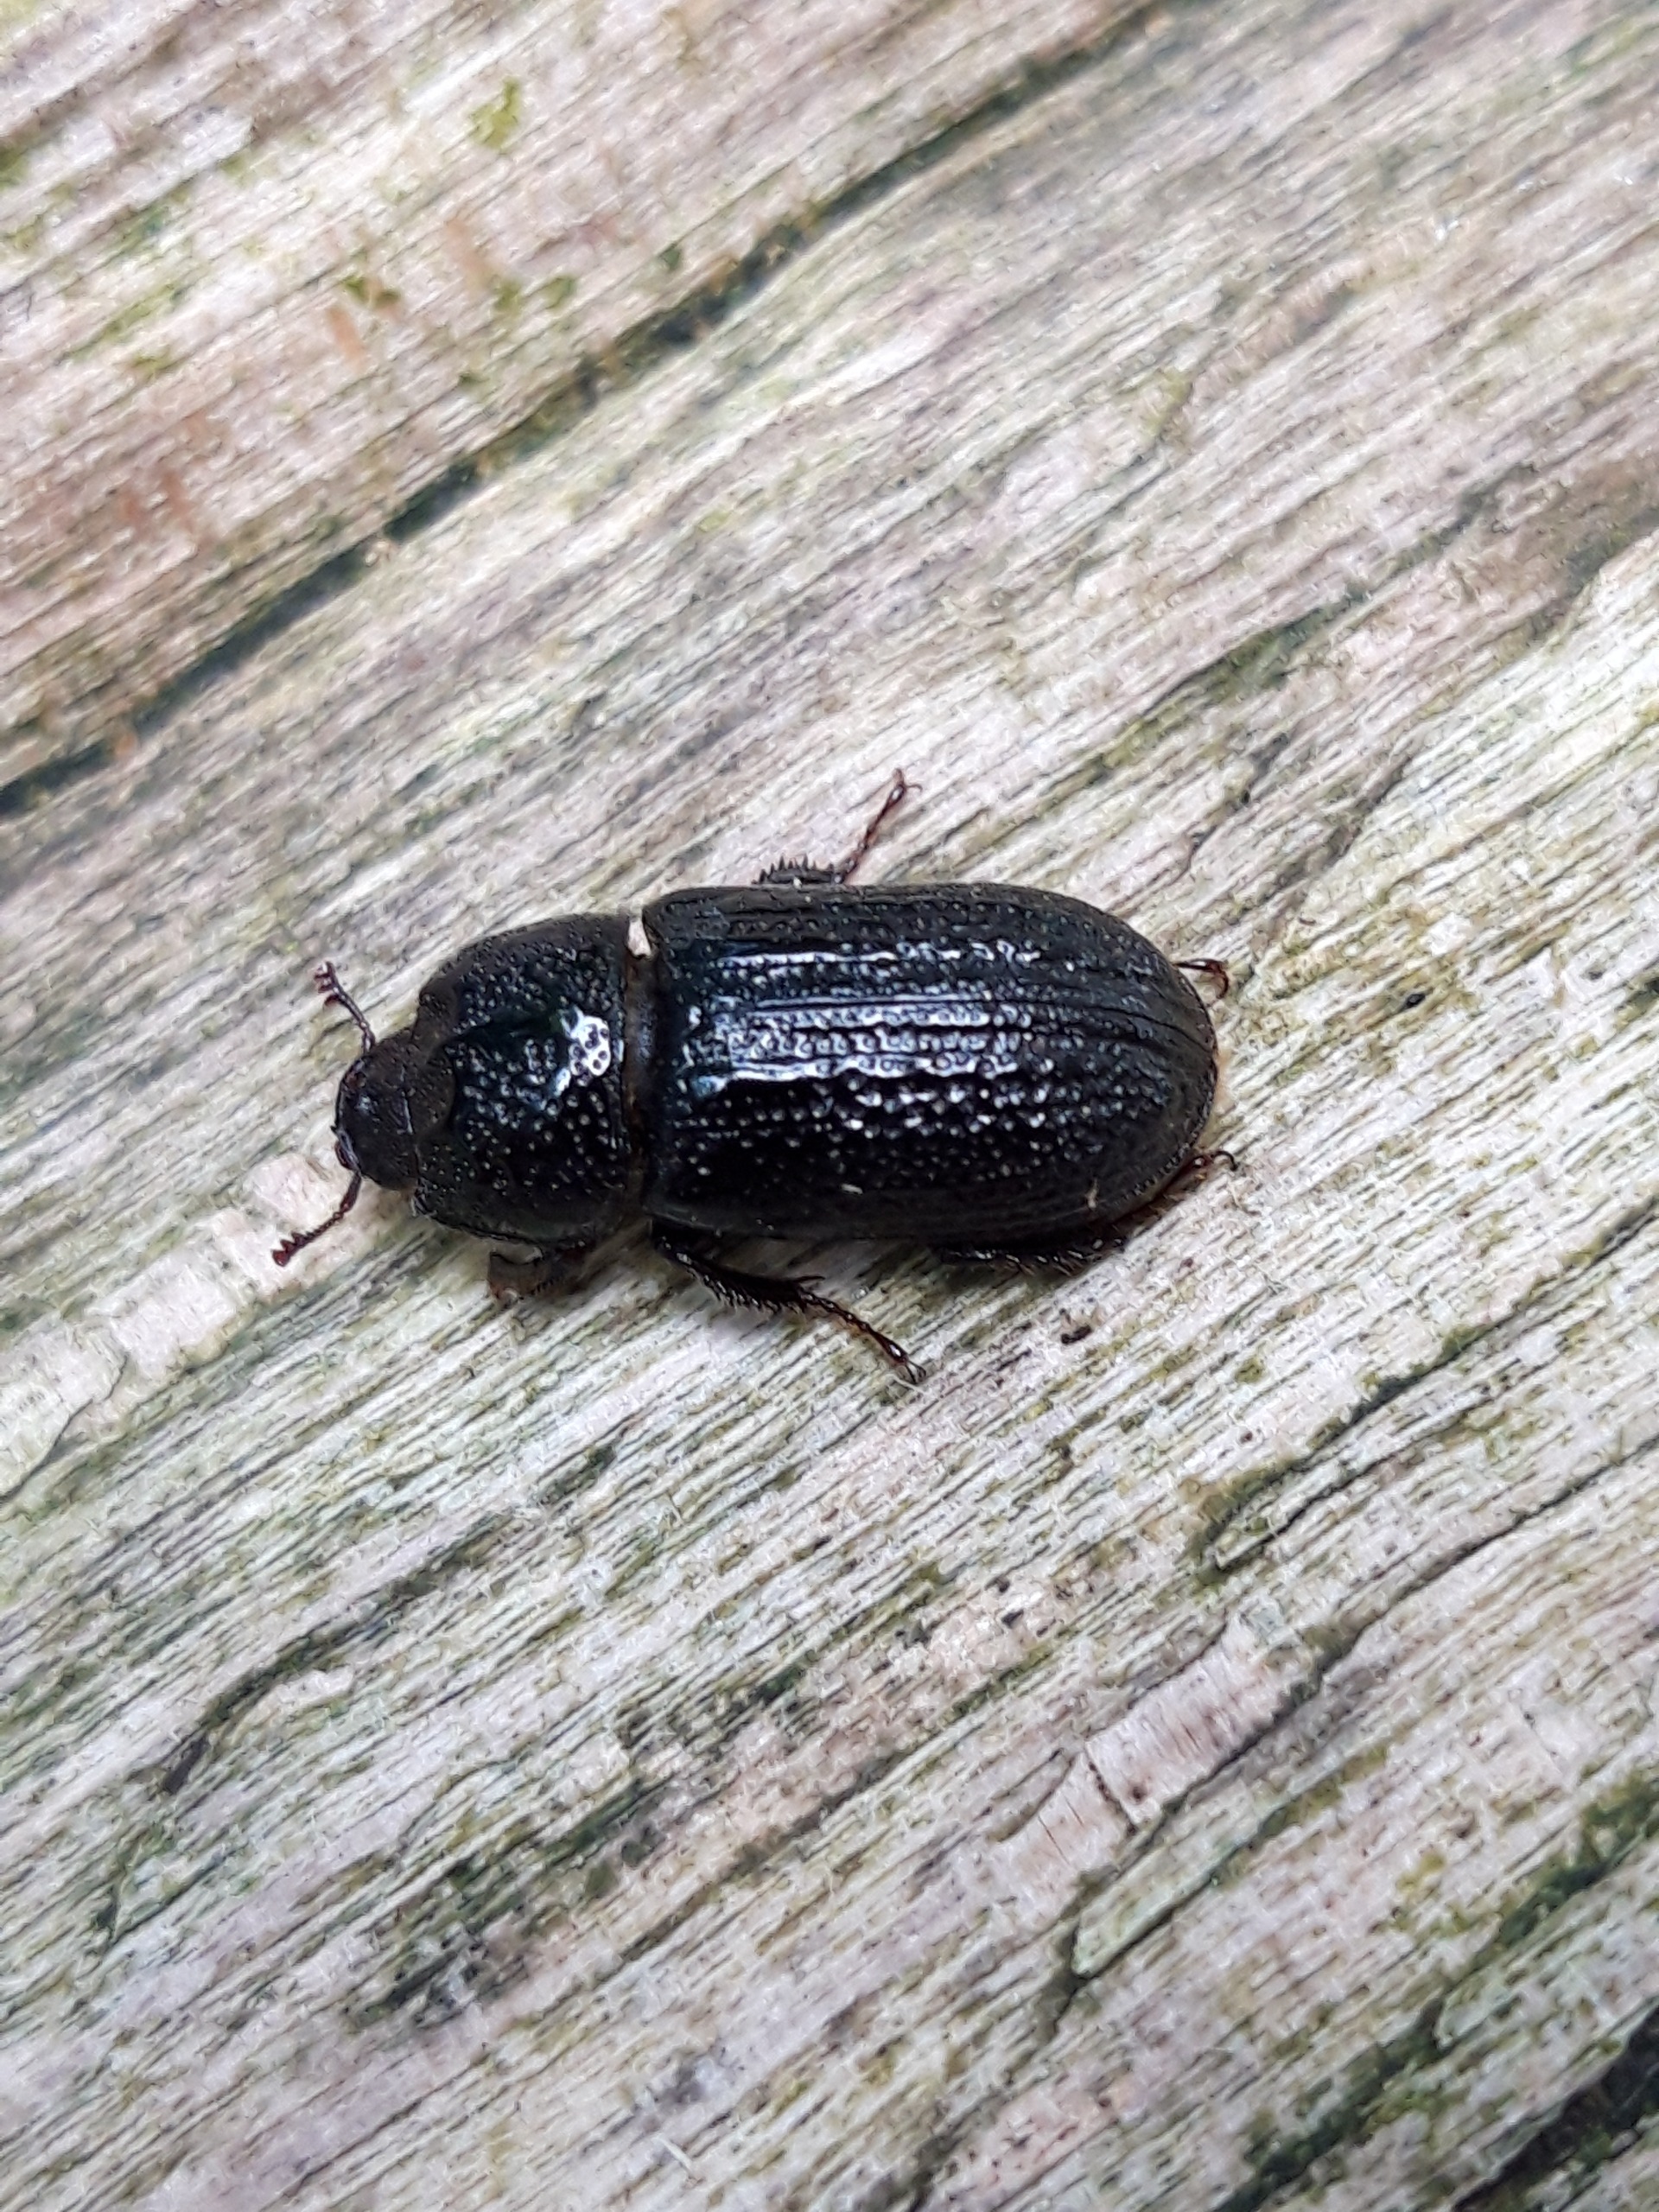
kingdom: Animalia
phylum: Arthropoda
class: Insecta
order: Coleoptera
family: Lucanidae
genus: Sinodendron
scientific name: Sinodendron cylindricum
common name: Valsehjort
